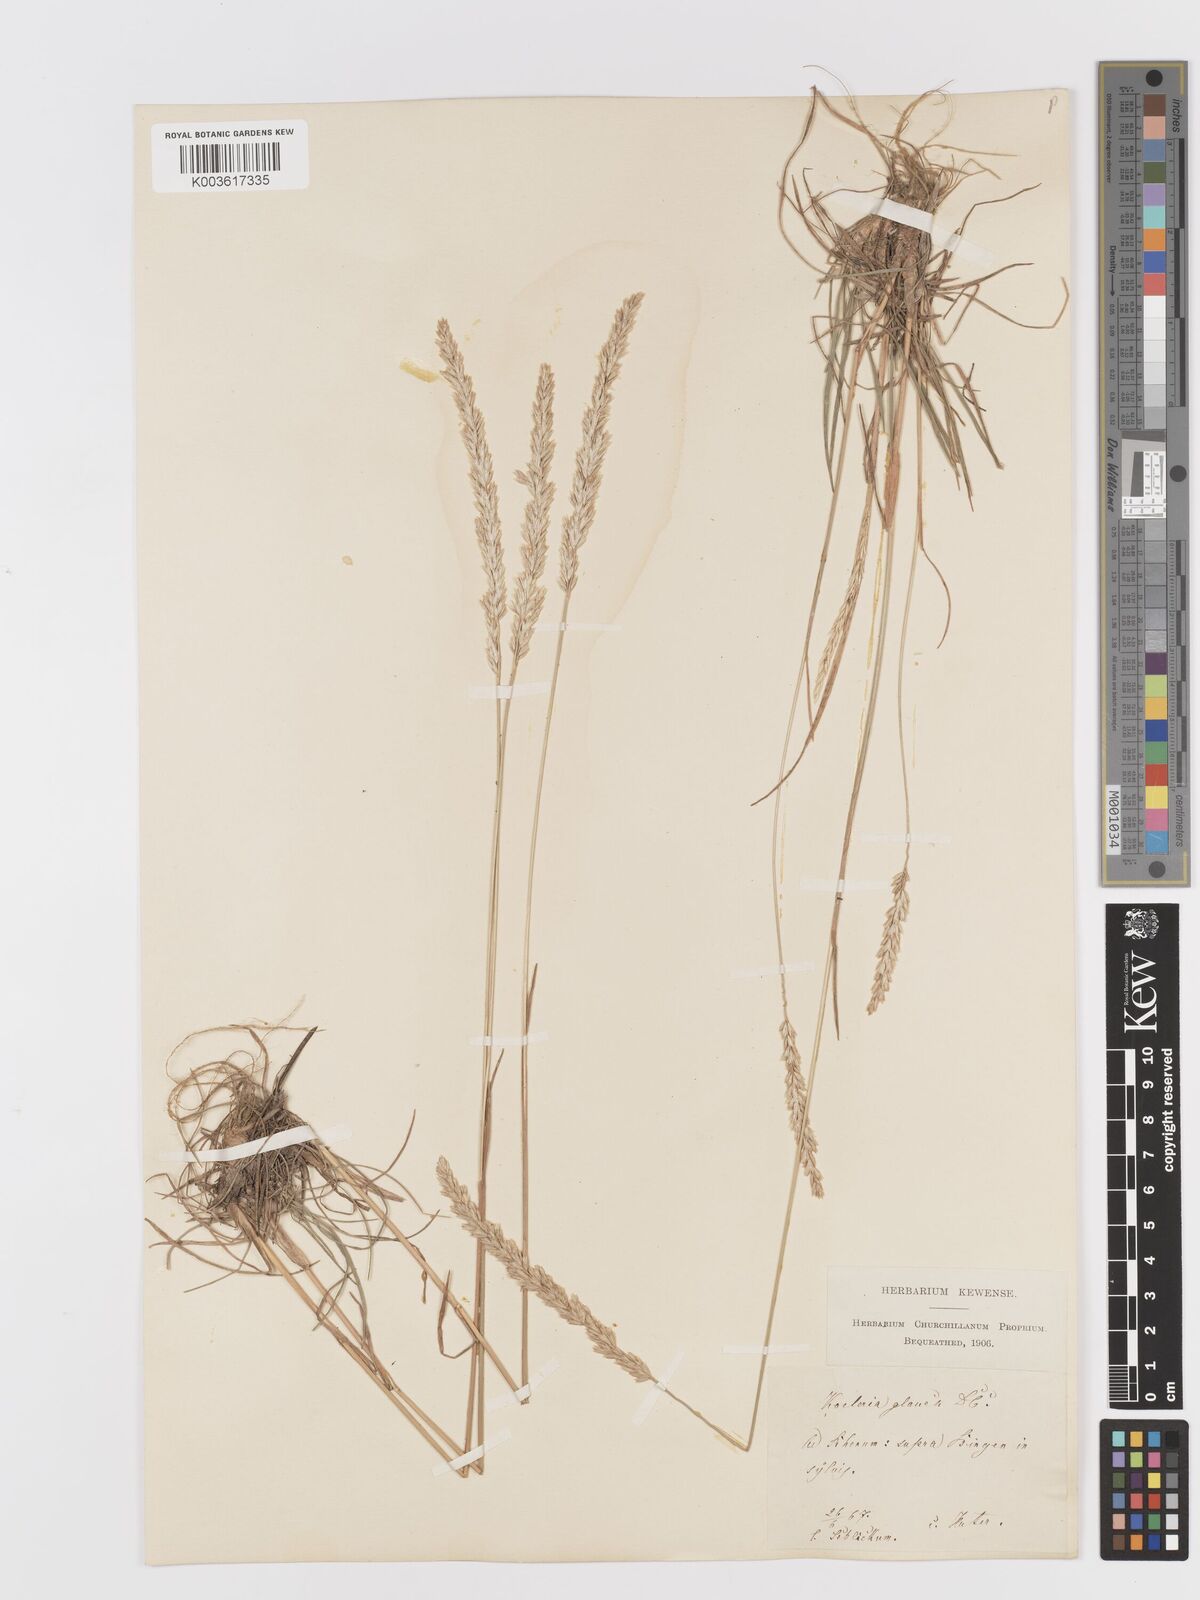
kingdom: Plantae
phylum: Tracheophyta
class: Liliopsida
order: Poales
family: Poaceae
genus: Koeleria
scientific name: Koeleria glauca
